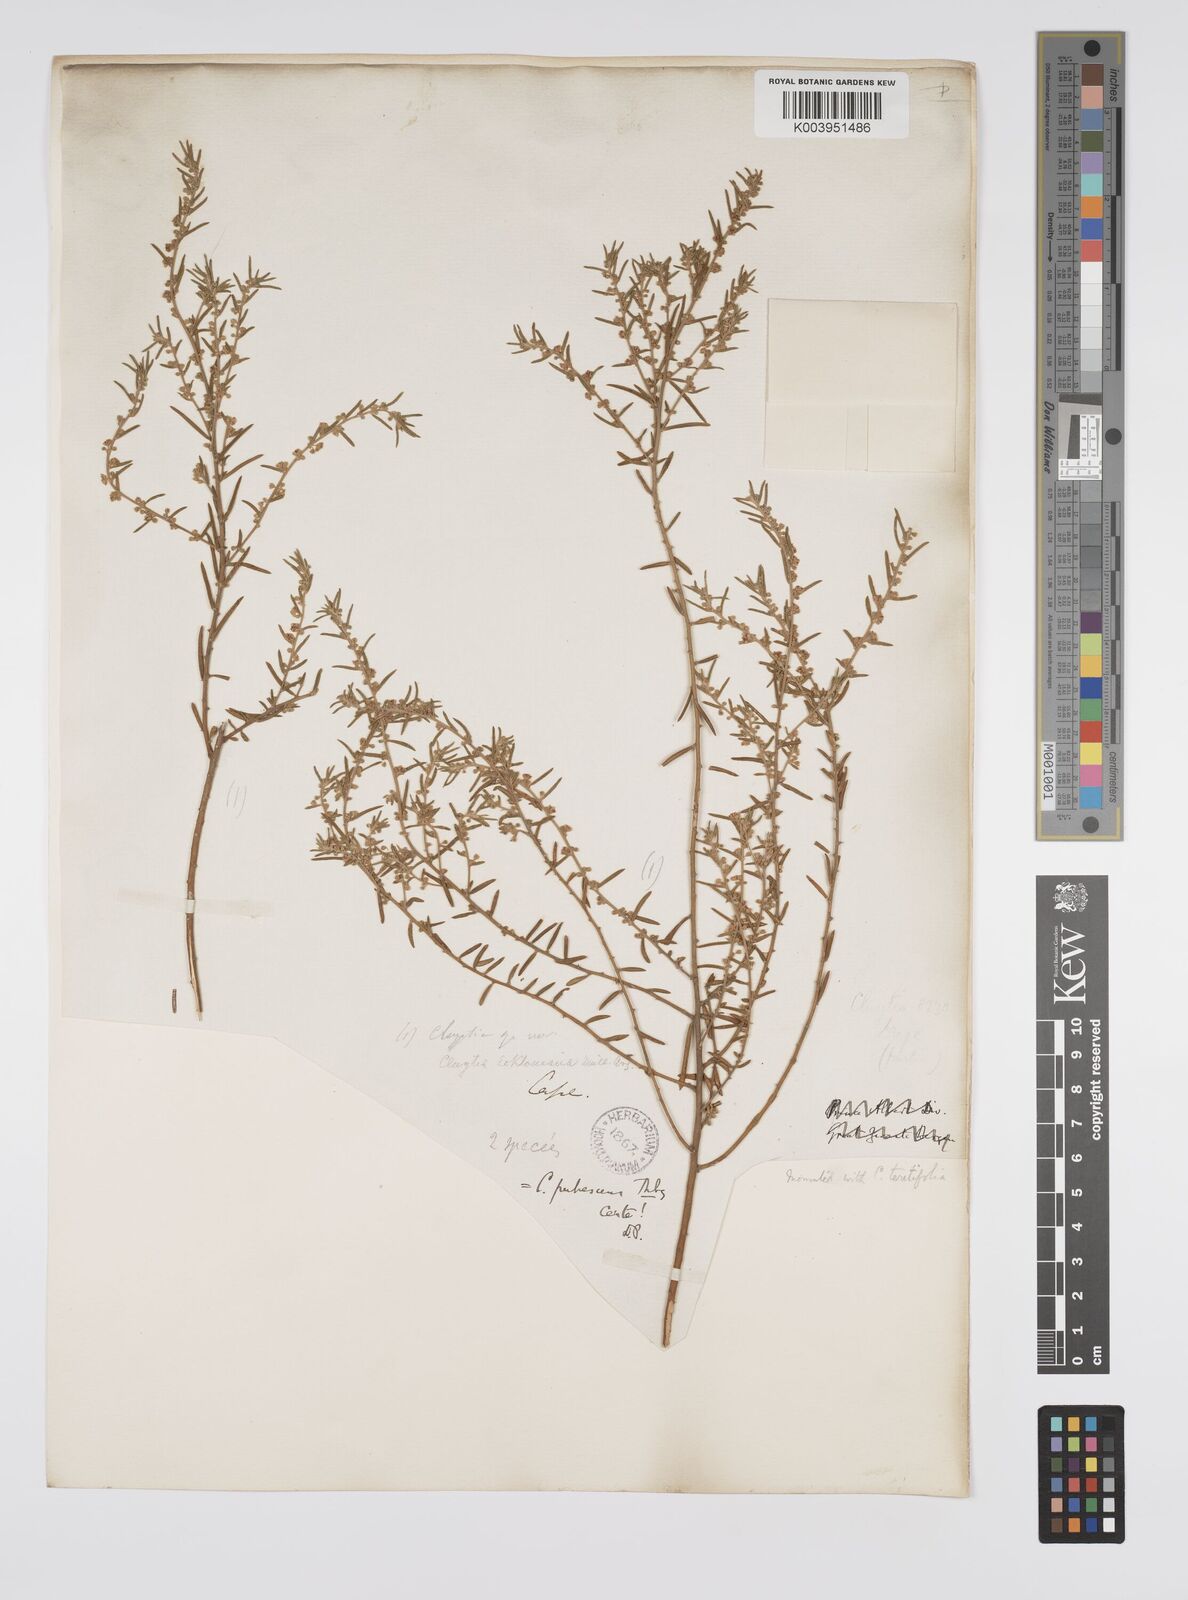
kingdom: Plantae
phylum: Tracheophyta
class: Magnoliopsida
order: Malpighiales
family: Peraceae
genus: Clutia
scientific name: Clutia
